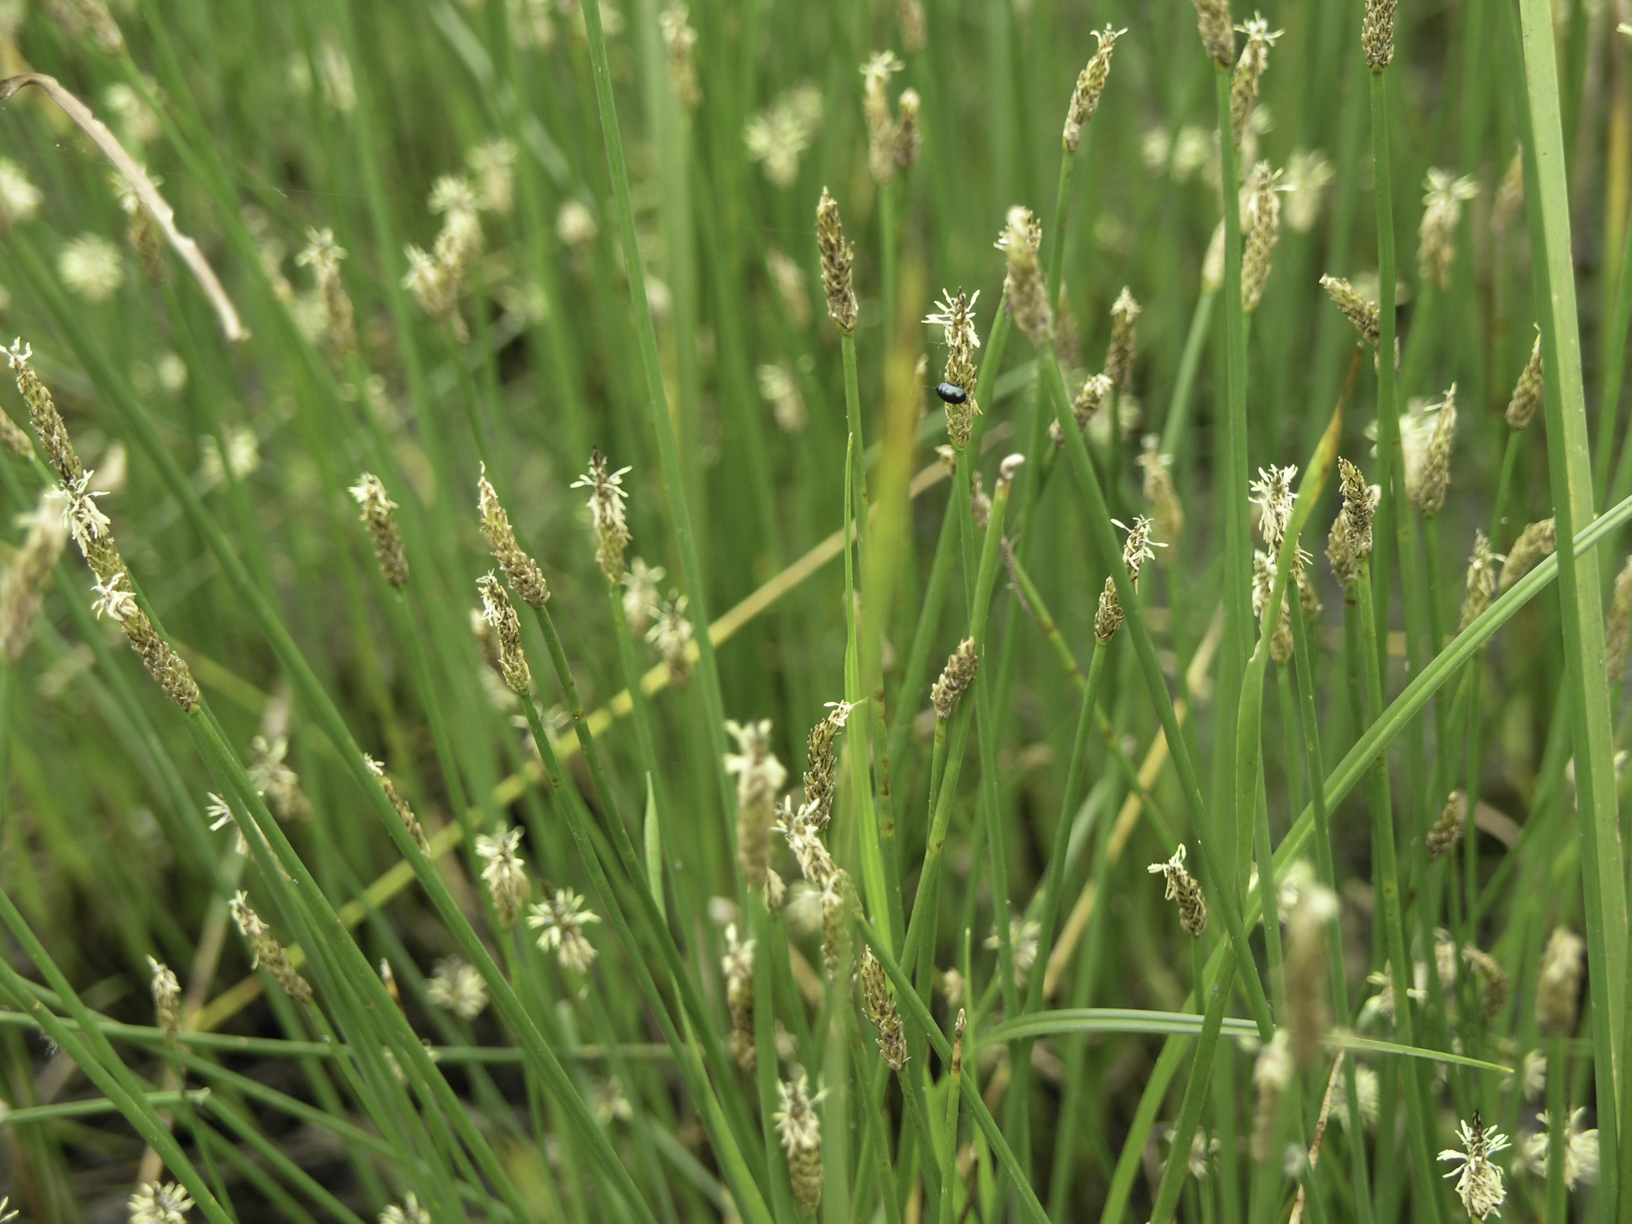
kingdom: Plantae
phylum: Tracheophyta
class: Liliopsida
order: Poales
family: Cyperaceae
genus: Eleocharis
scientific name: Eleocharis palustris
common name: Common spike-rush
